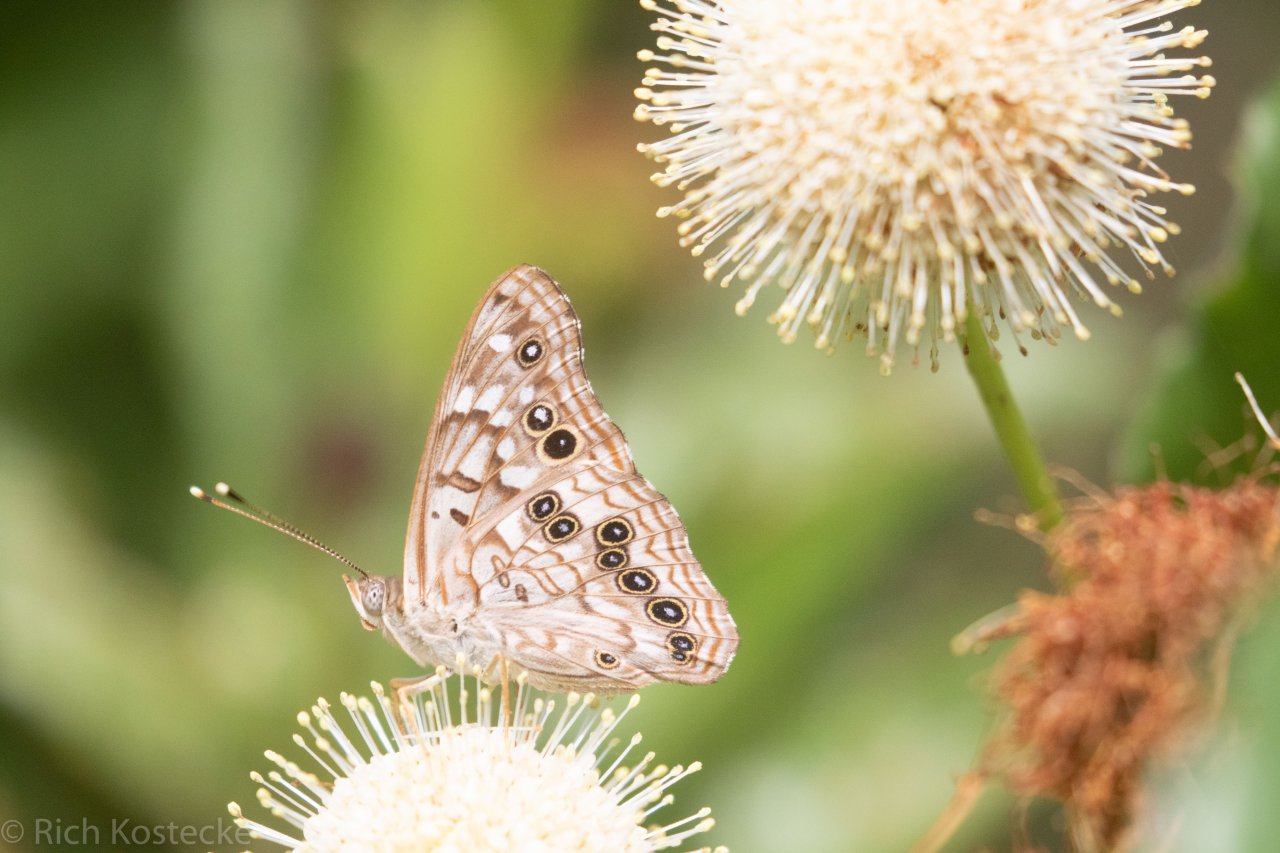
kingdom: Animalia
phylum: Arthropoda
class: Insecta
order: Lepidoptera
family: Nymphalidae
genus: Asterocampa
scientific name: Asterocampa celtis
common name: Hackberry Emperor
